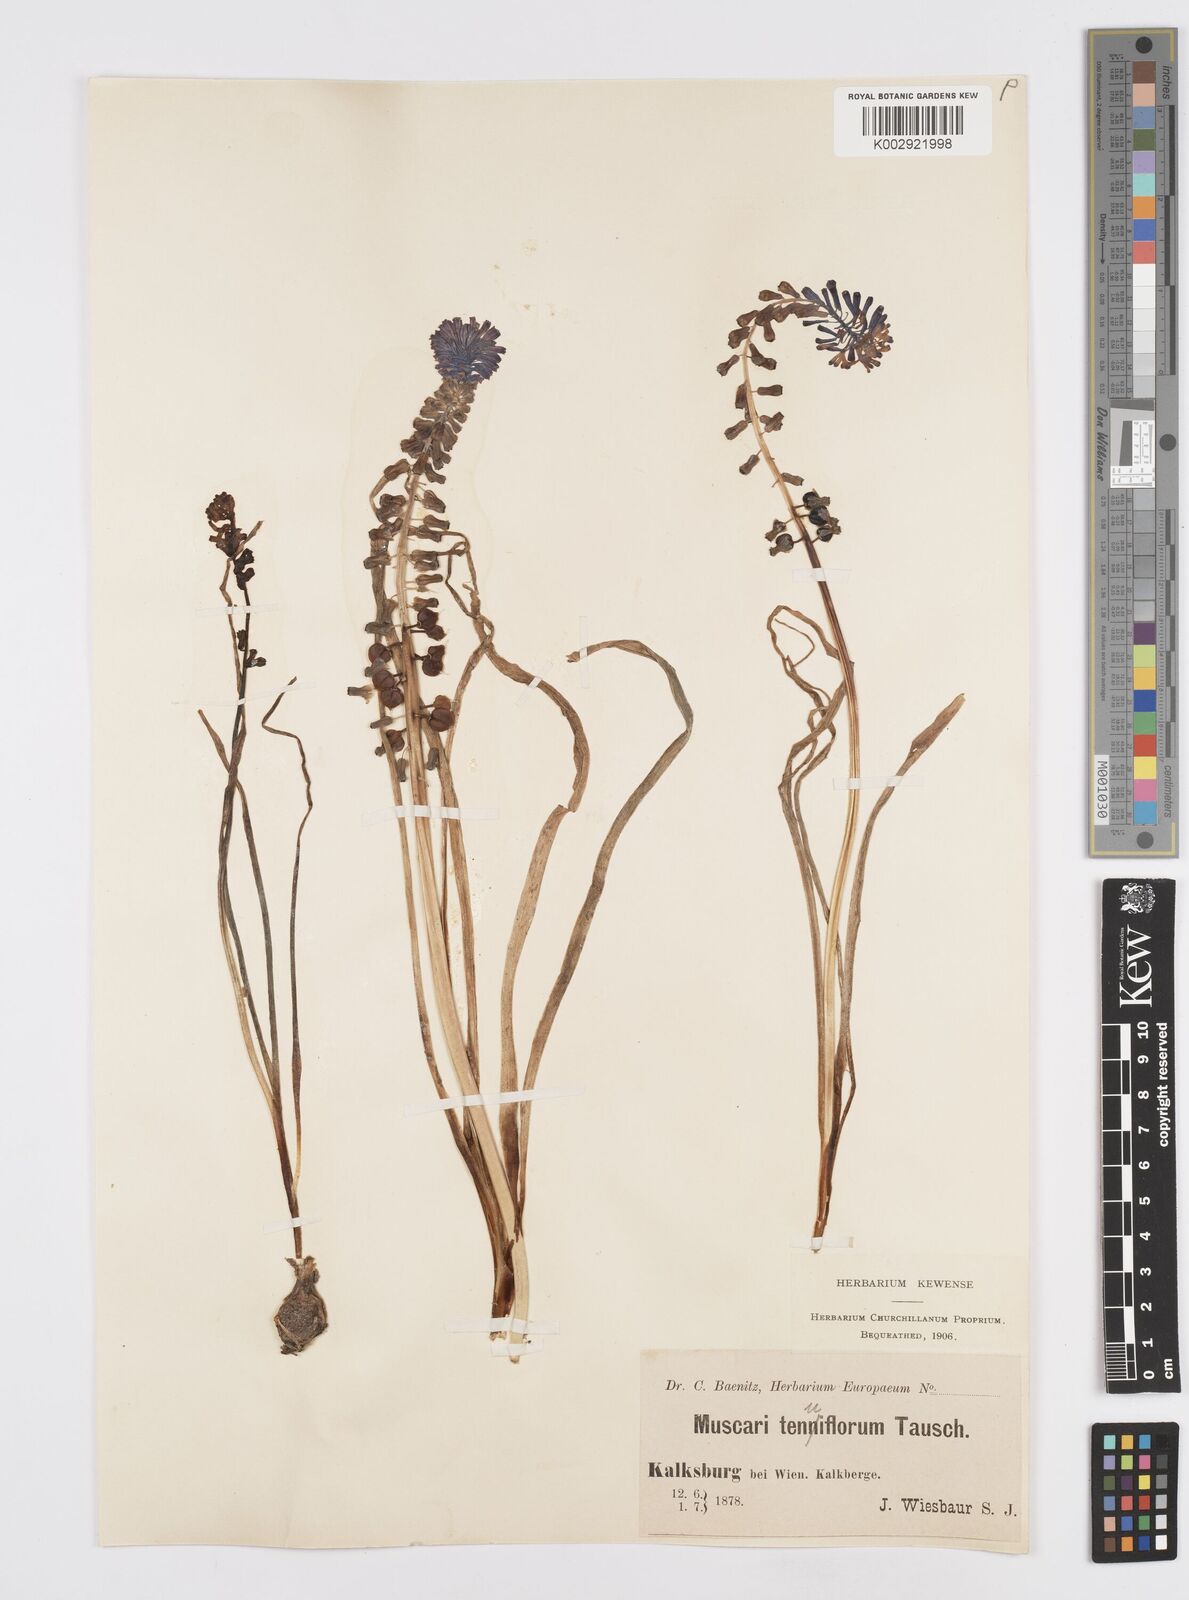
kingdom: Plantae
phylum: Tracheophyta
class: Liliopsida
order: Asparagales
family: Asparagaceae
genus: Muscari
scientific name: Muscari tenuiflorum
